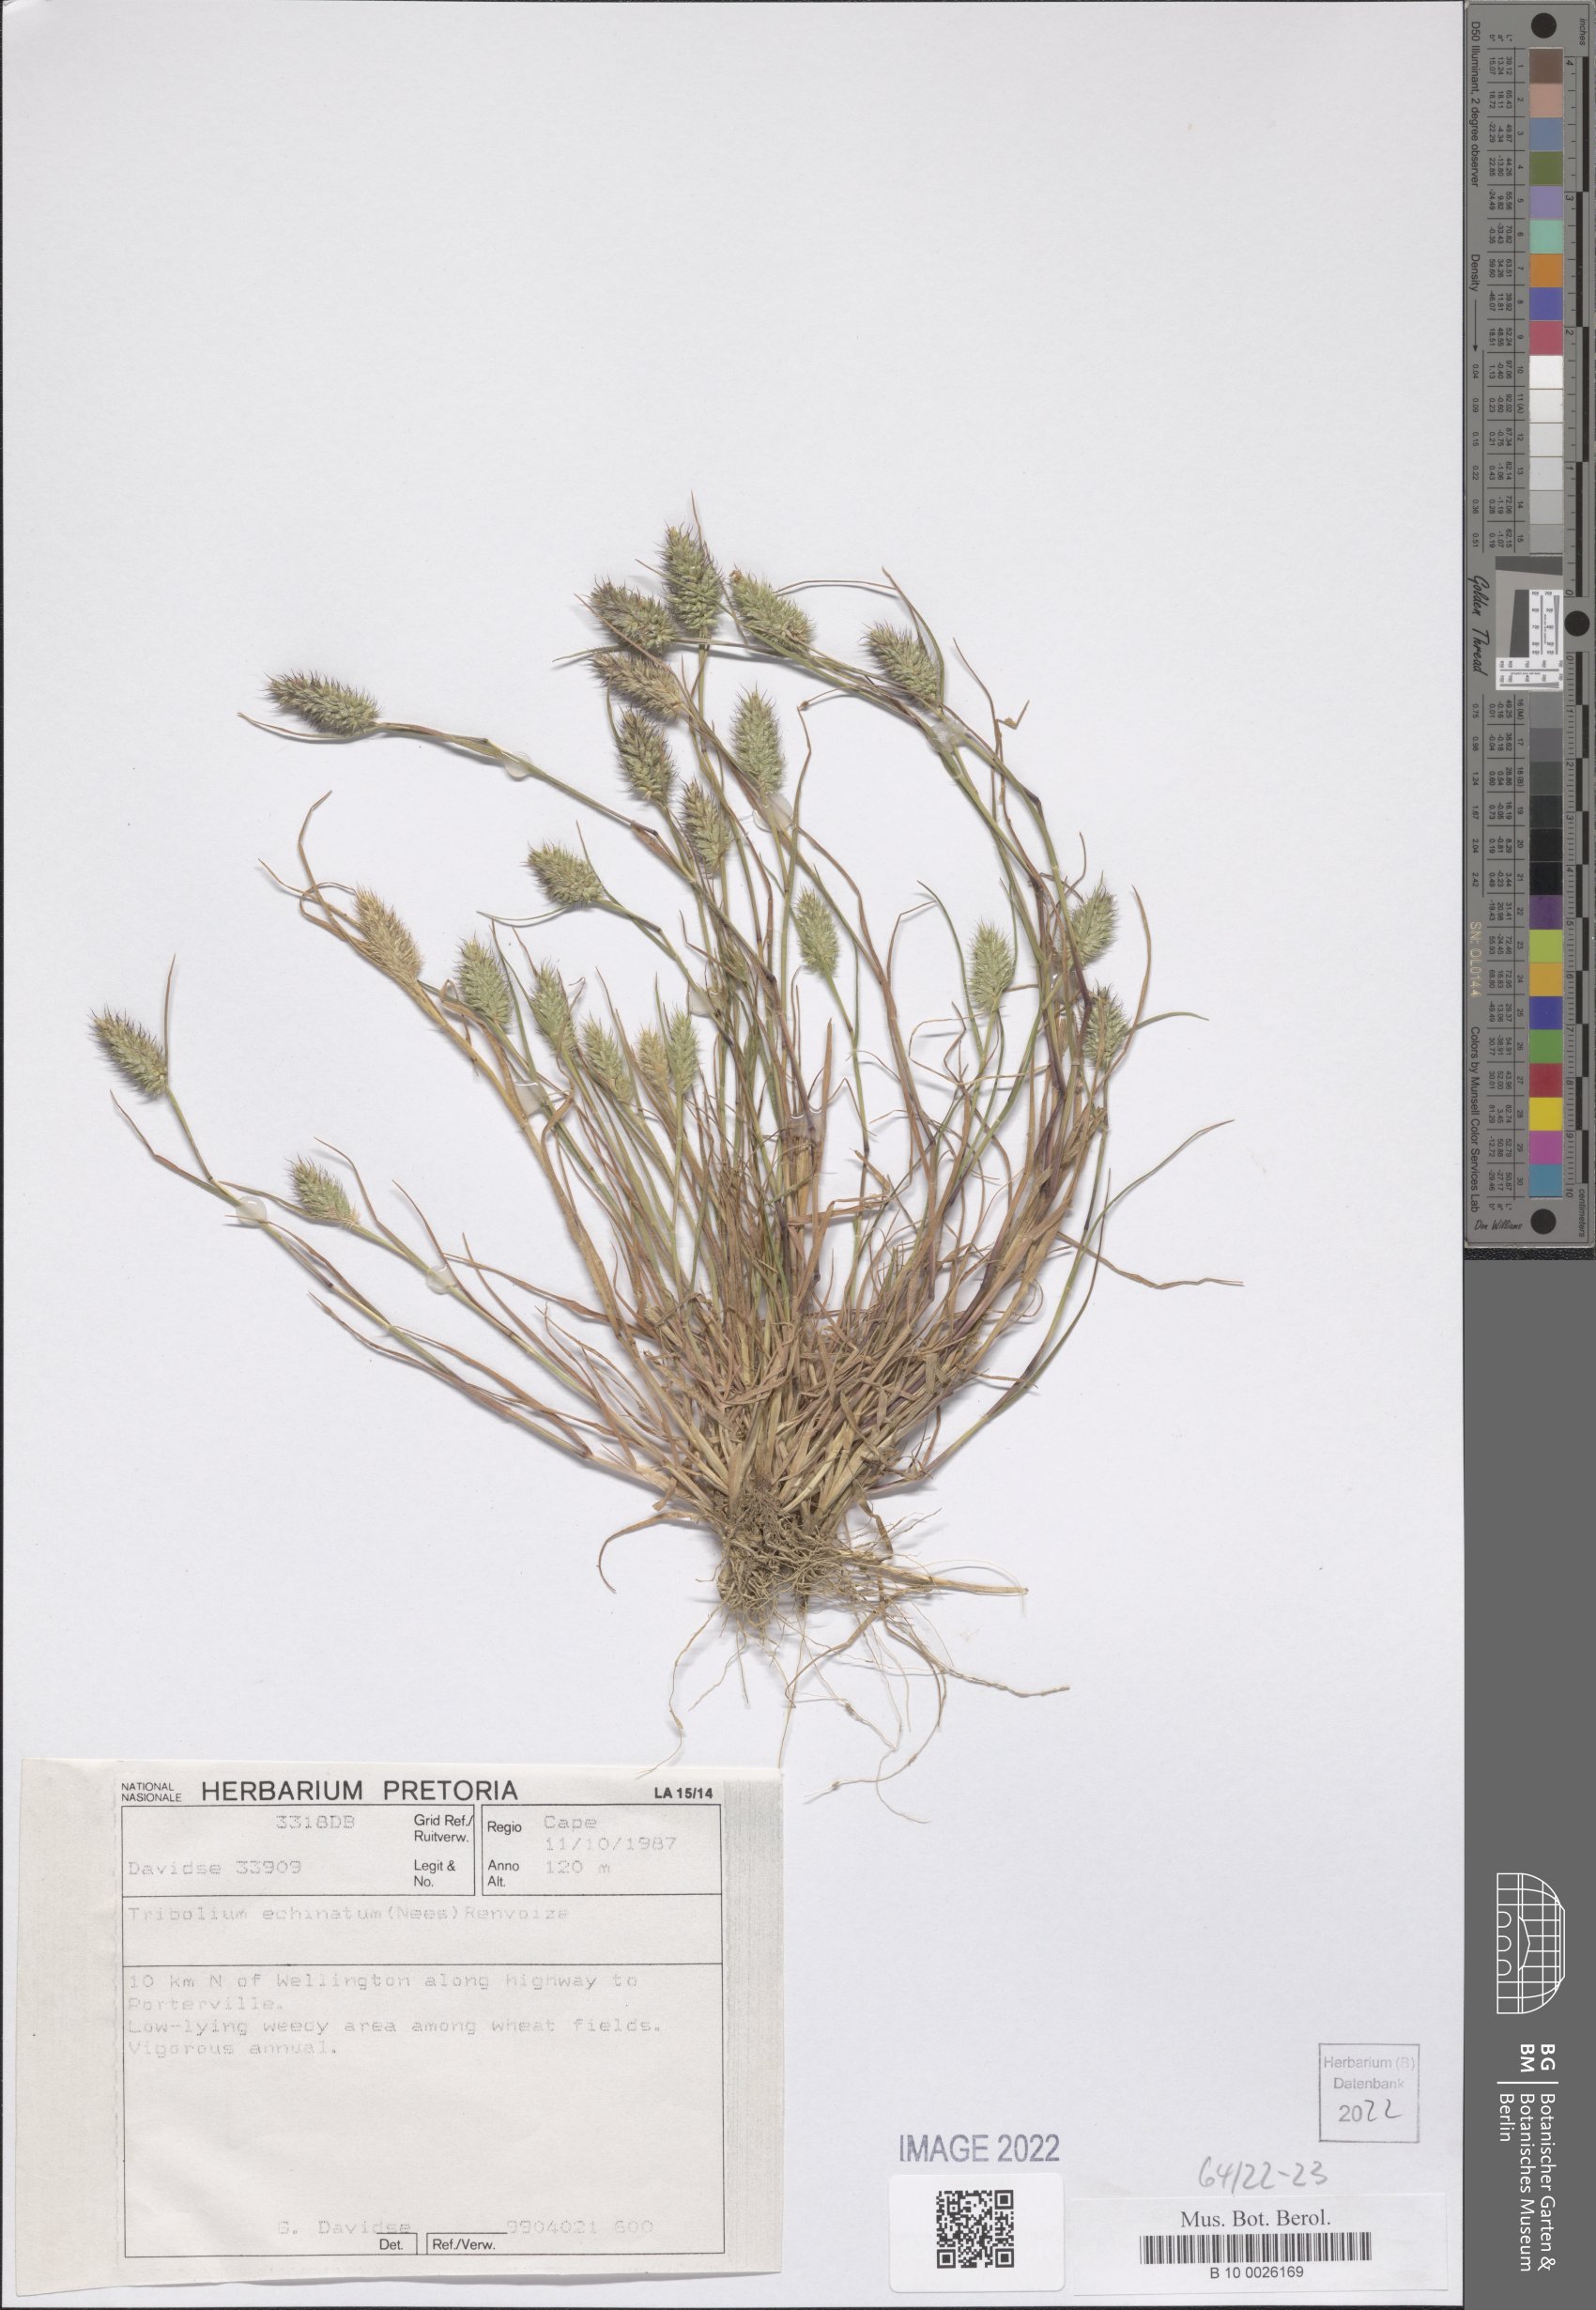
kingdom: Plantae
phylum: Tracheophyta
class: Liliopsida
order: Poales
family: Poaceae
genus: Tribolium
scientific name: Tribolium echinatum
